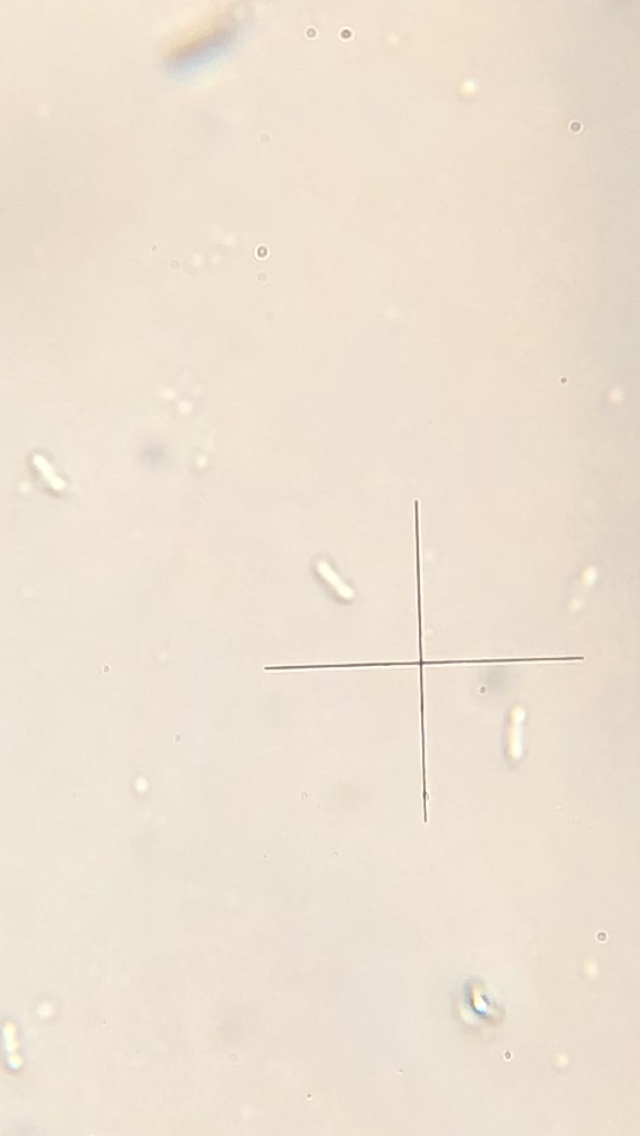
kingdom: Fungi
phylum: Basidiomycota
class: Agaricomycetes
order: Polyporales
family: Polyporaceae
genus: Lentinus
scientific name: Lentinus substrictus
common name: forårs-stilkporesvamp
